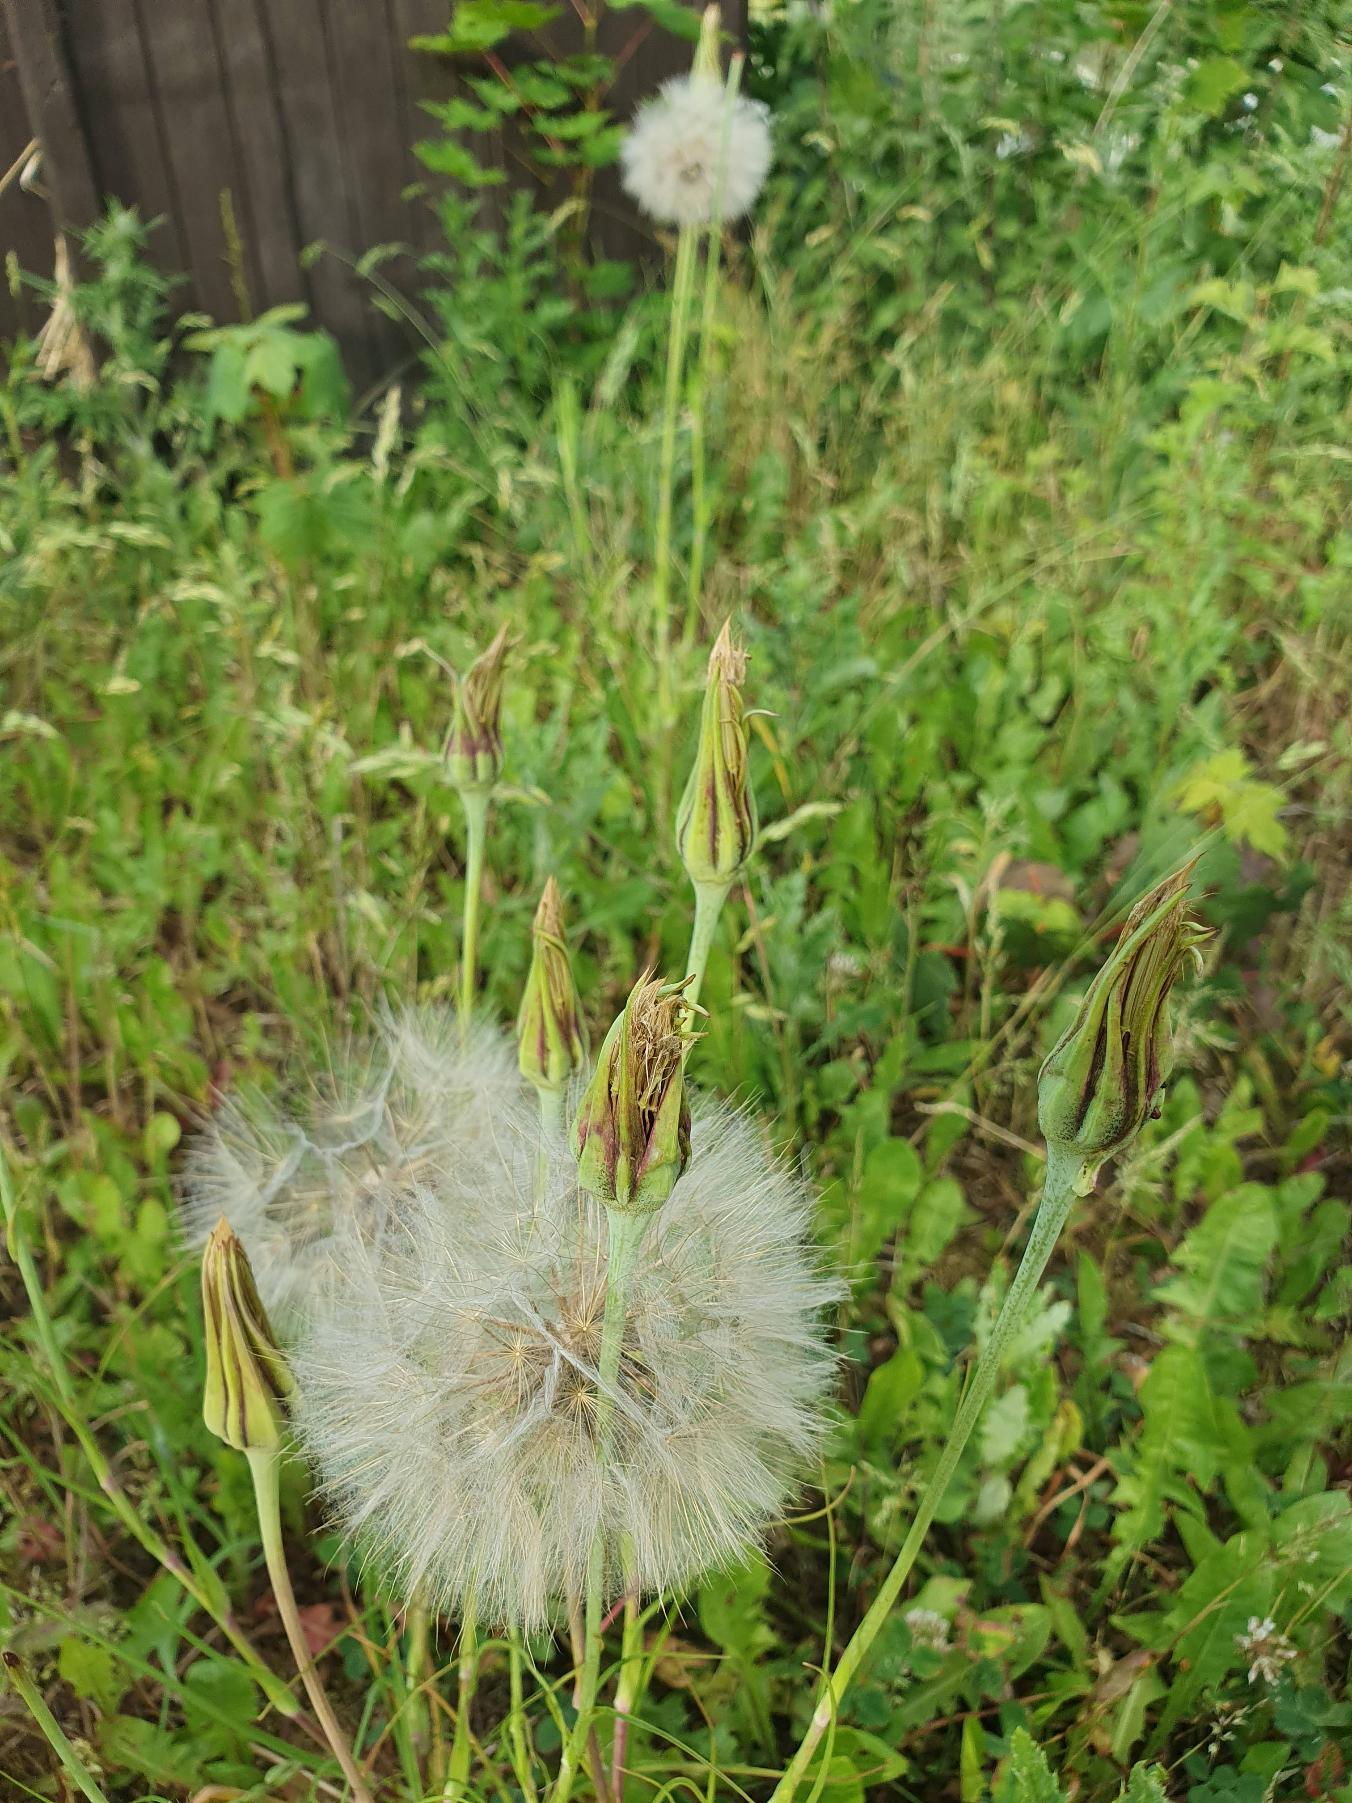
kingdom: Plantae
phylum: Tracheophyta
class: Magnoliopsida
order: Asterales
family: Asteraceae
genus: Tragopogon
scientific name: Tragopogon pratensis
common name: Gedeskæg
